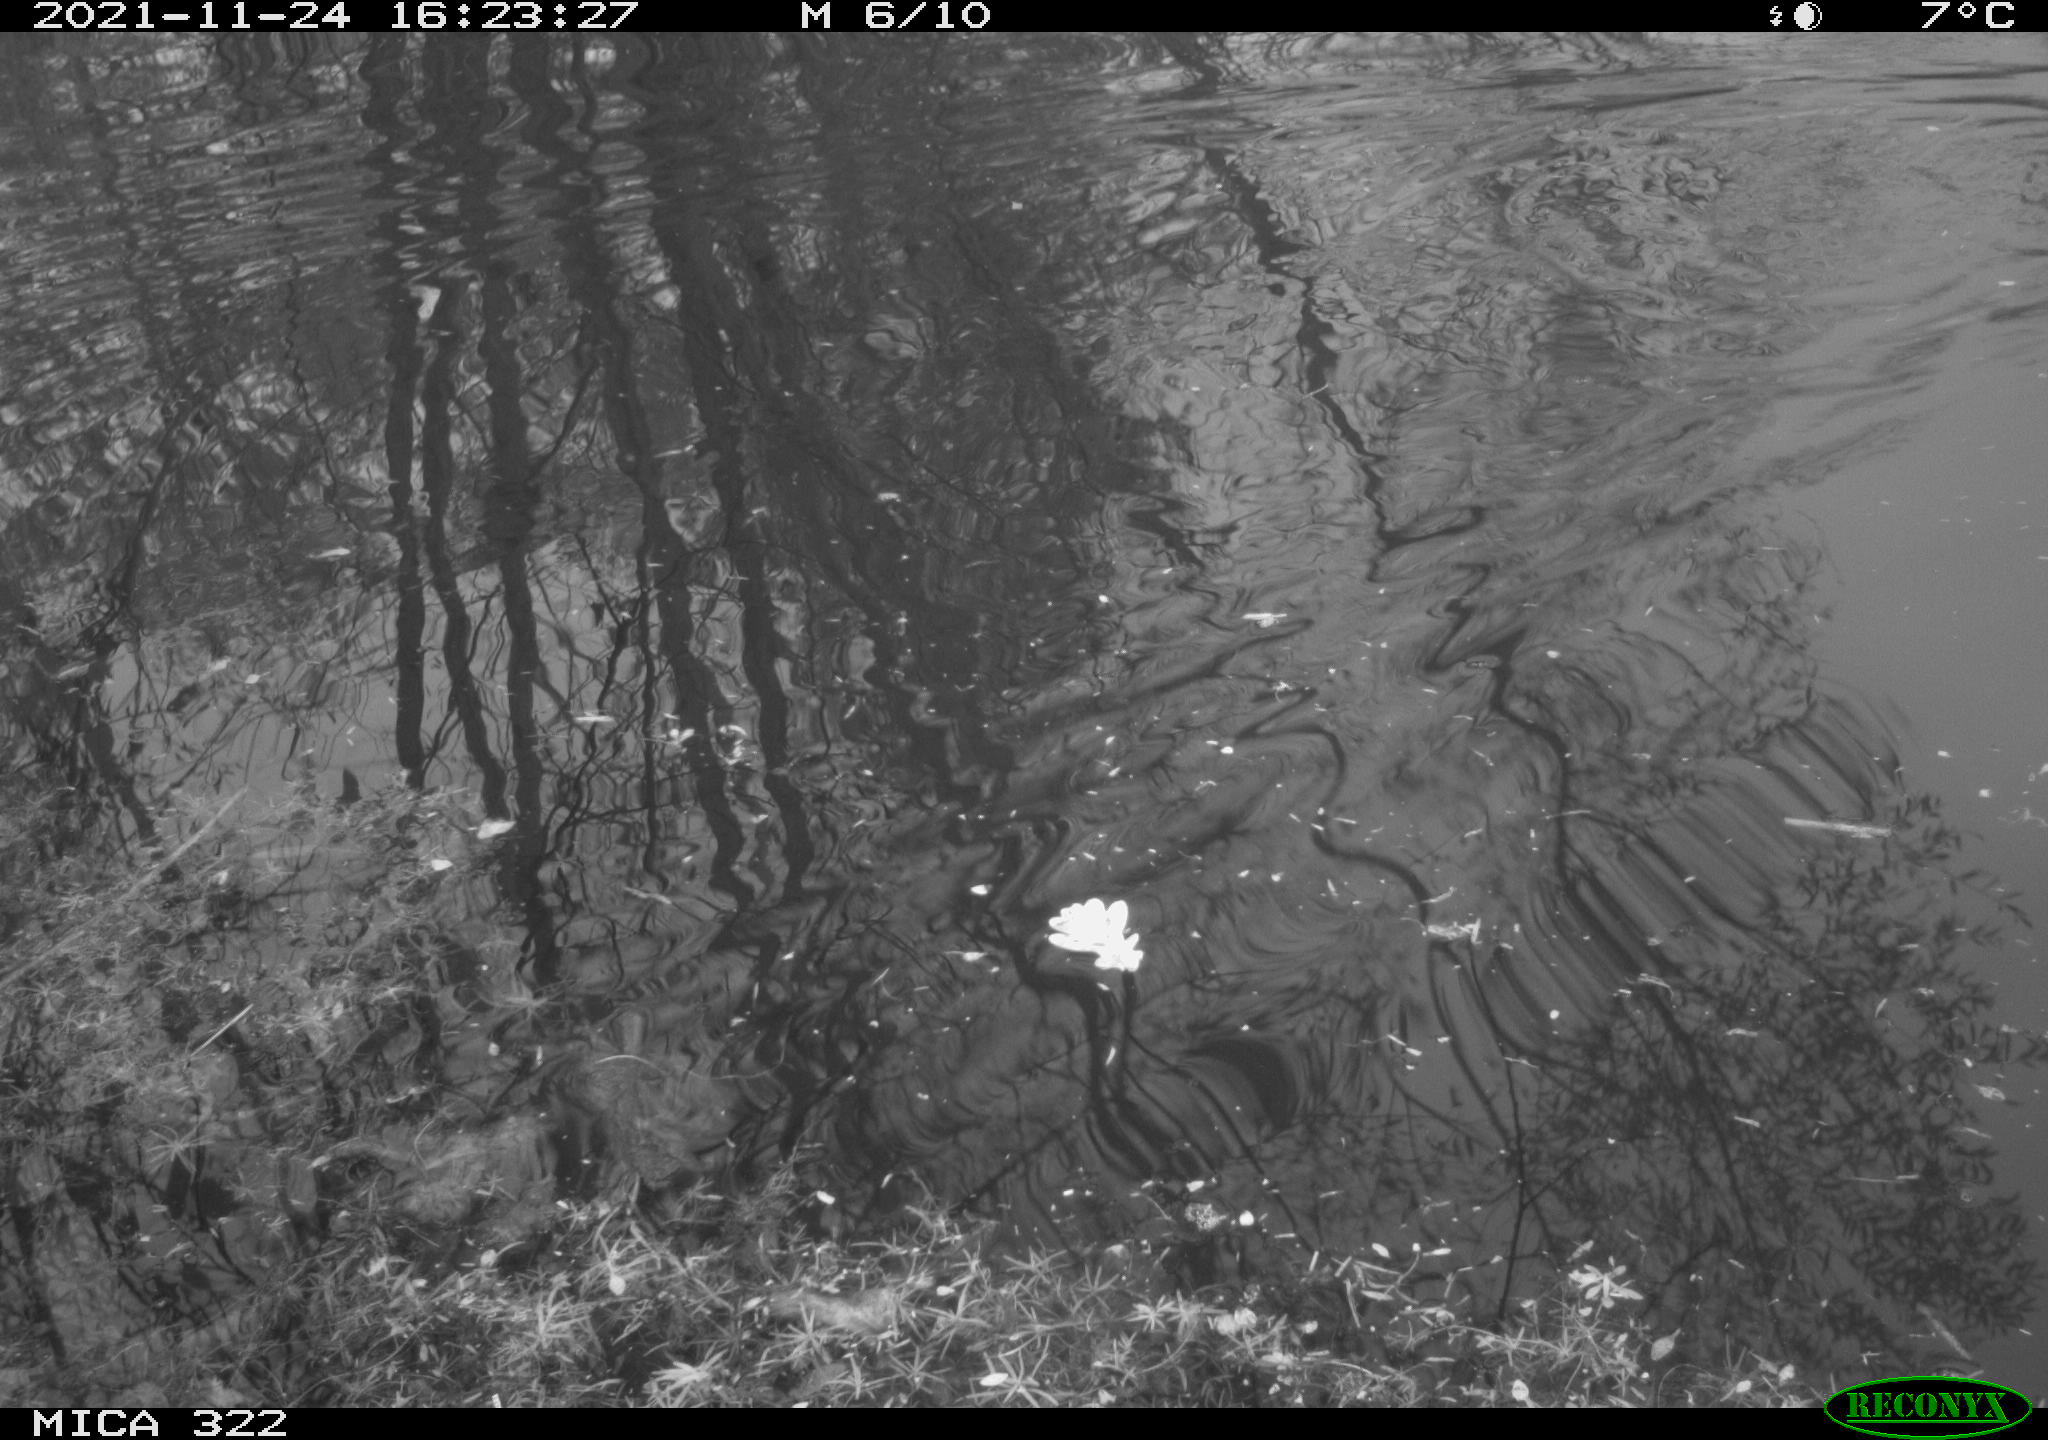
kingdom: Animalia
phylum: Chordata
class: Aves
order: Gruiformes
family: Rallidae
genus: Gallinula
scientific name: Gallinula chloropus
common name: Common moorhen
